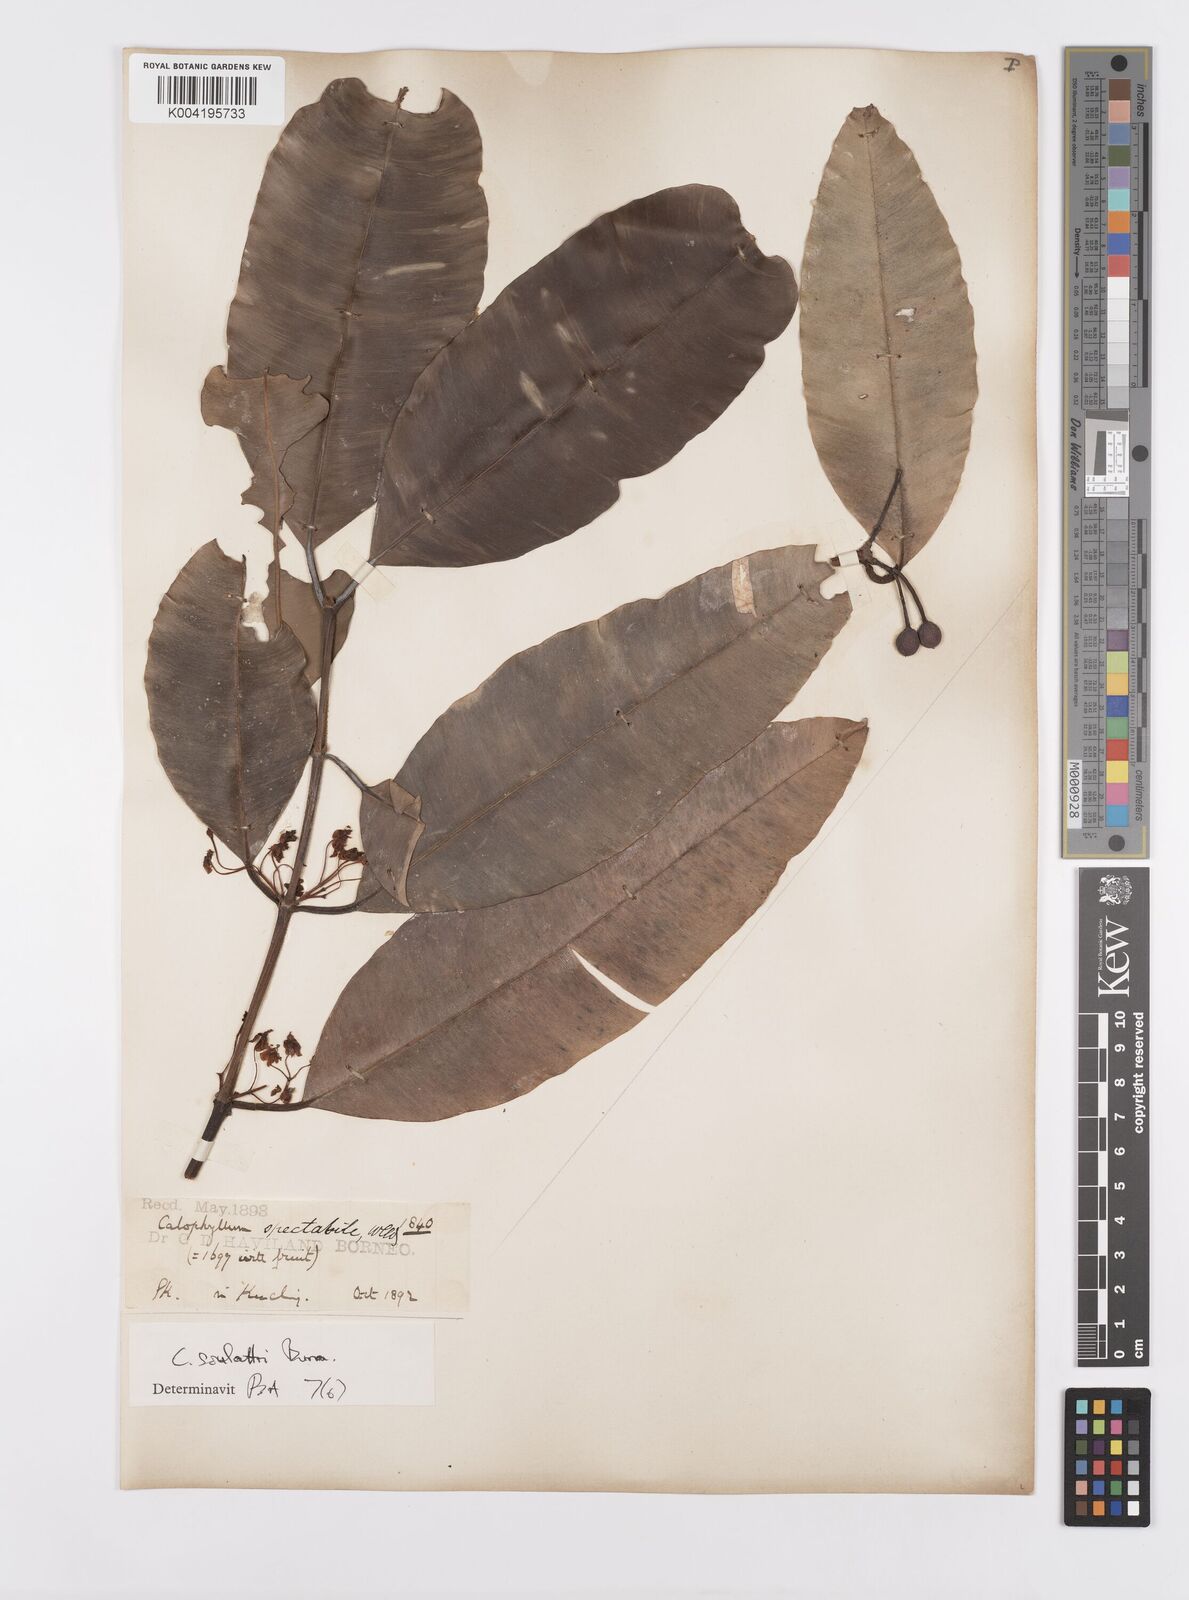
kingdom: Plantae
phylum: Tracheophyta
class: Magnoliopsida
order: Malpighiales
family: Calophyllaceae
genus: Calophyllum
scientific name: Calophyllum soulattri
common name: Bitangoor boonot
